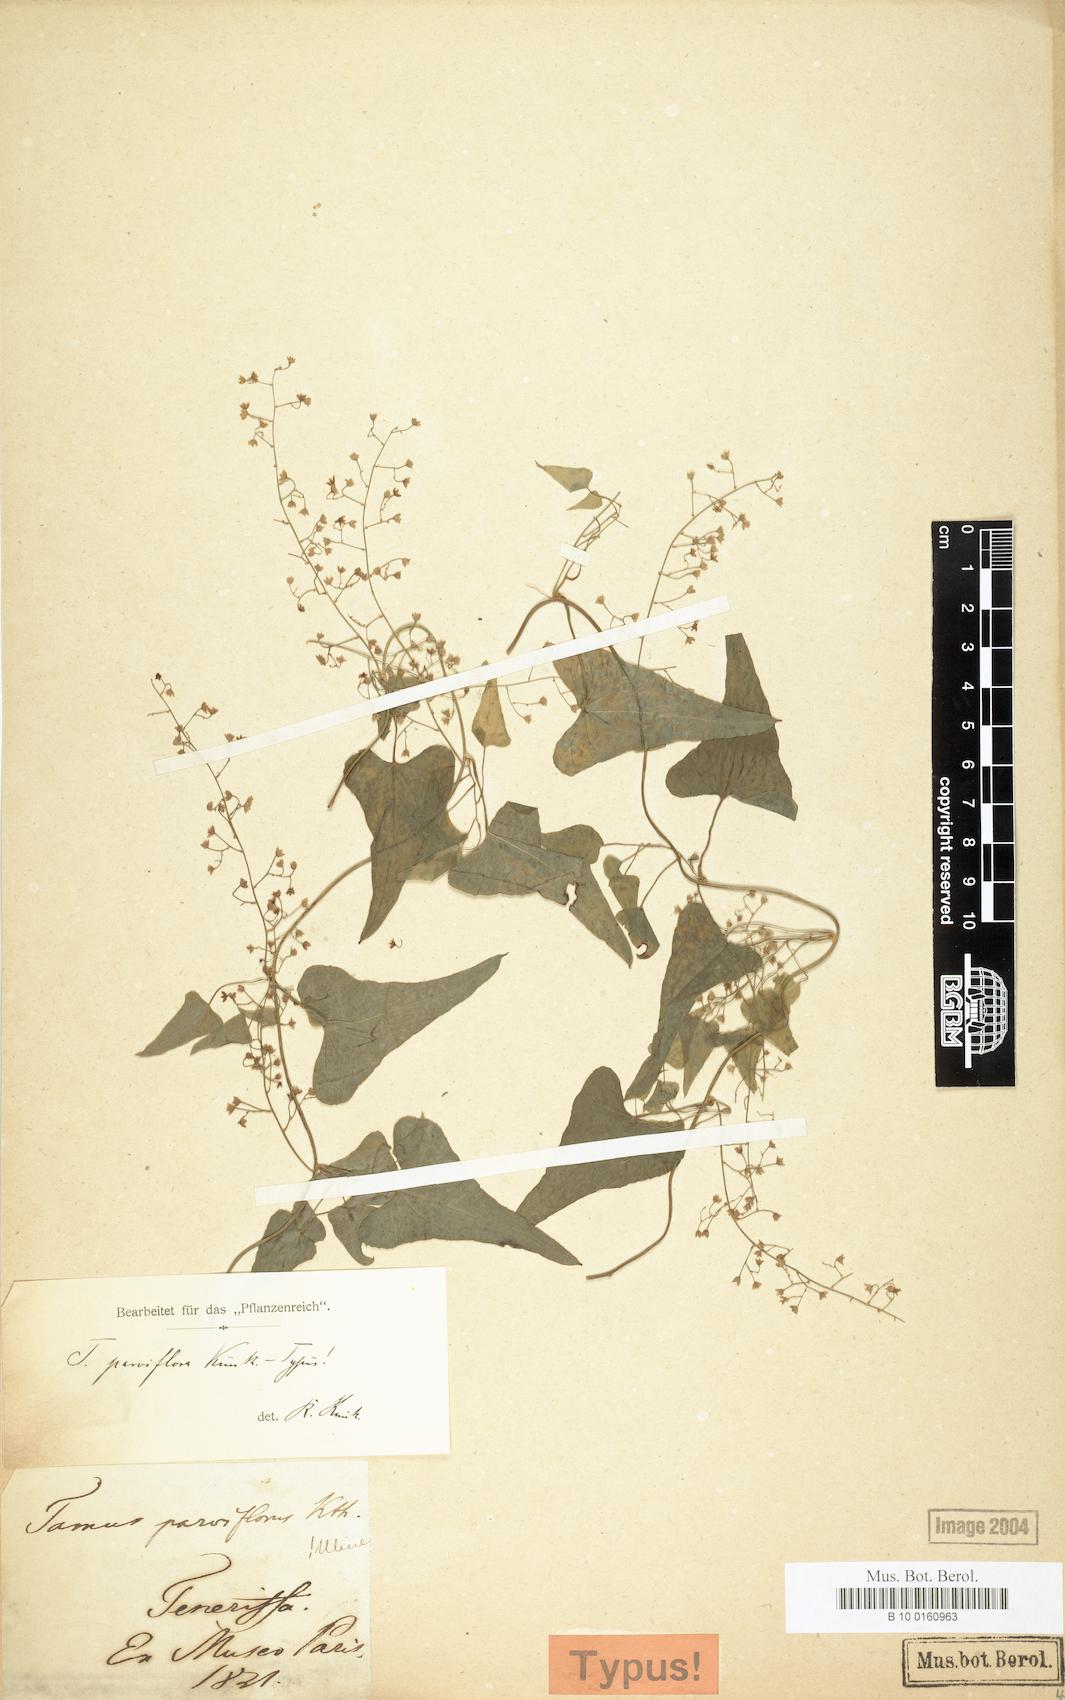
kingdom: Plantae
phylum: Tracheophyta
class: Liliopsida
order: Dioscoreales
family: Dioscoreaceae
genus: Dioscorea
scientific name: Dioscorea communis
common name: Black-bindweed
